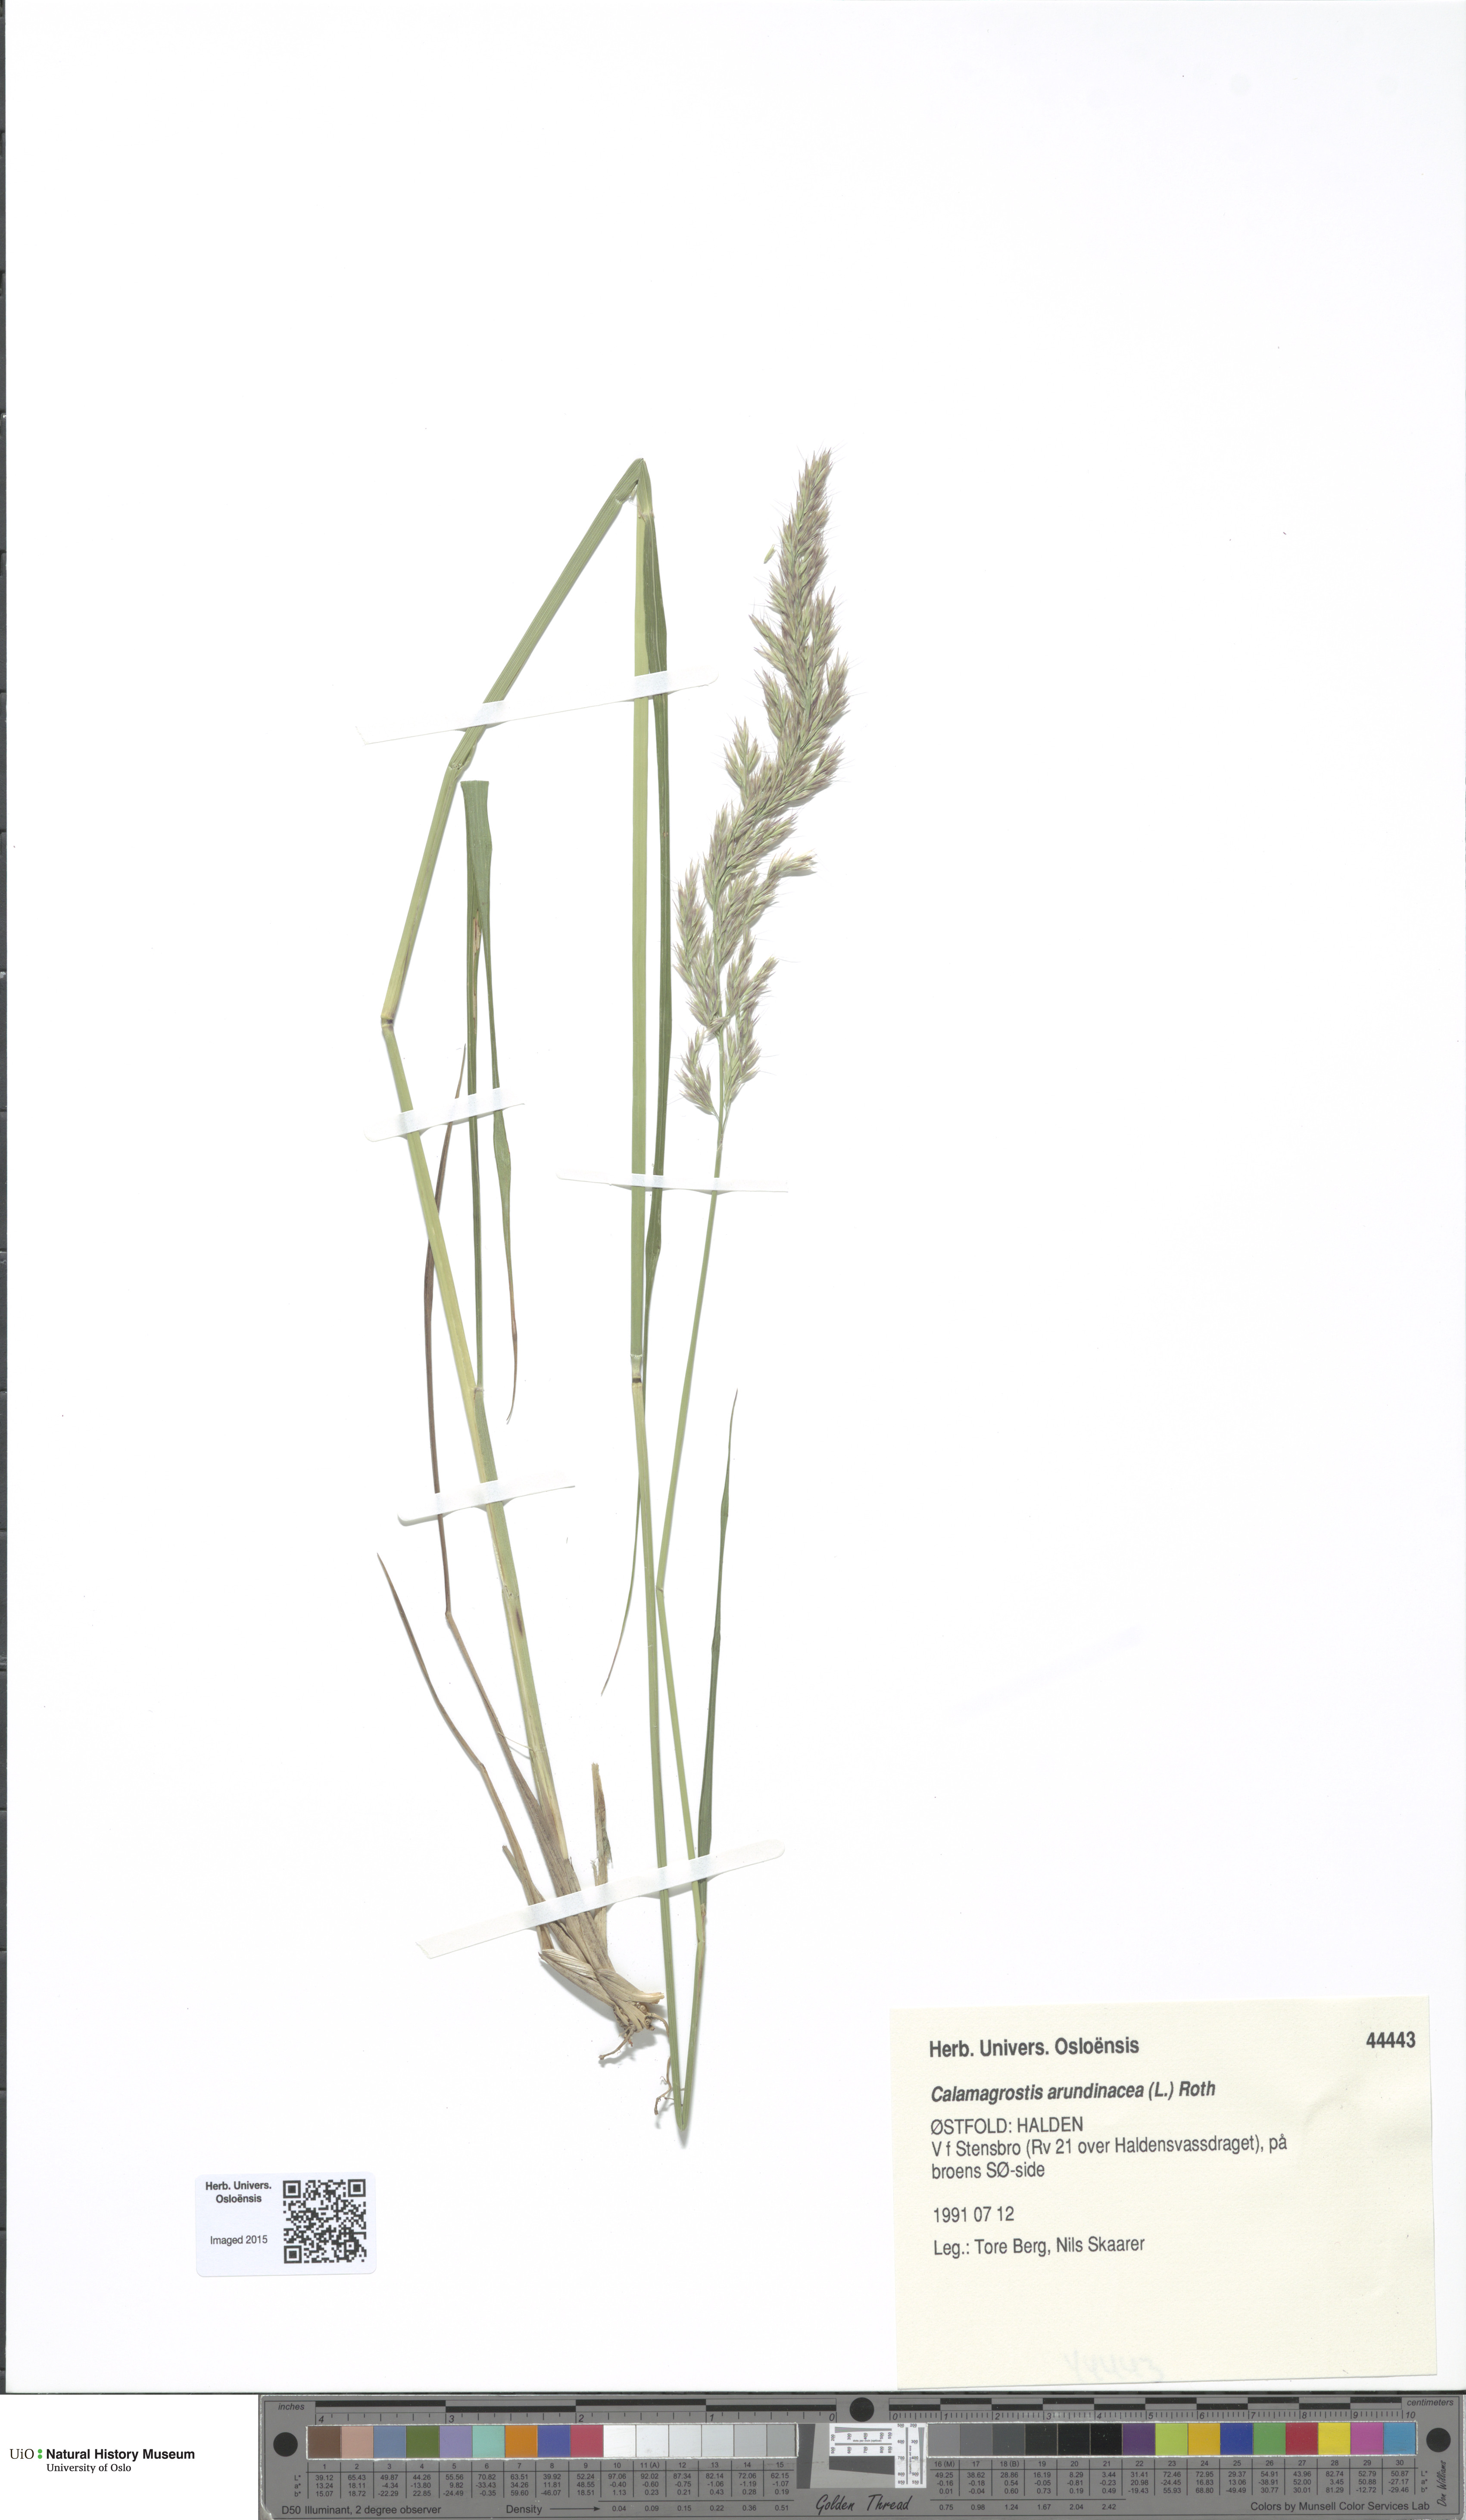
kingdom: Plantae
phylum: Tracheophyta
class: Liliopsida
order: Poales
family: Poaceae
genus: Calamagrostis
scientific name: Calamagrostis arundinacea
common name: Metskastik
